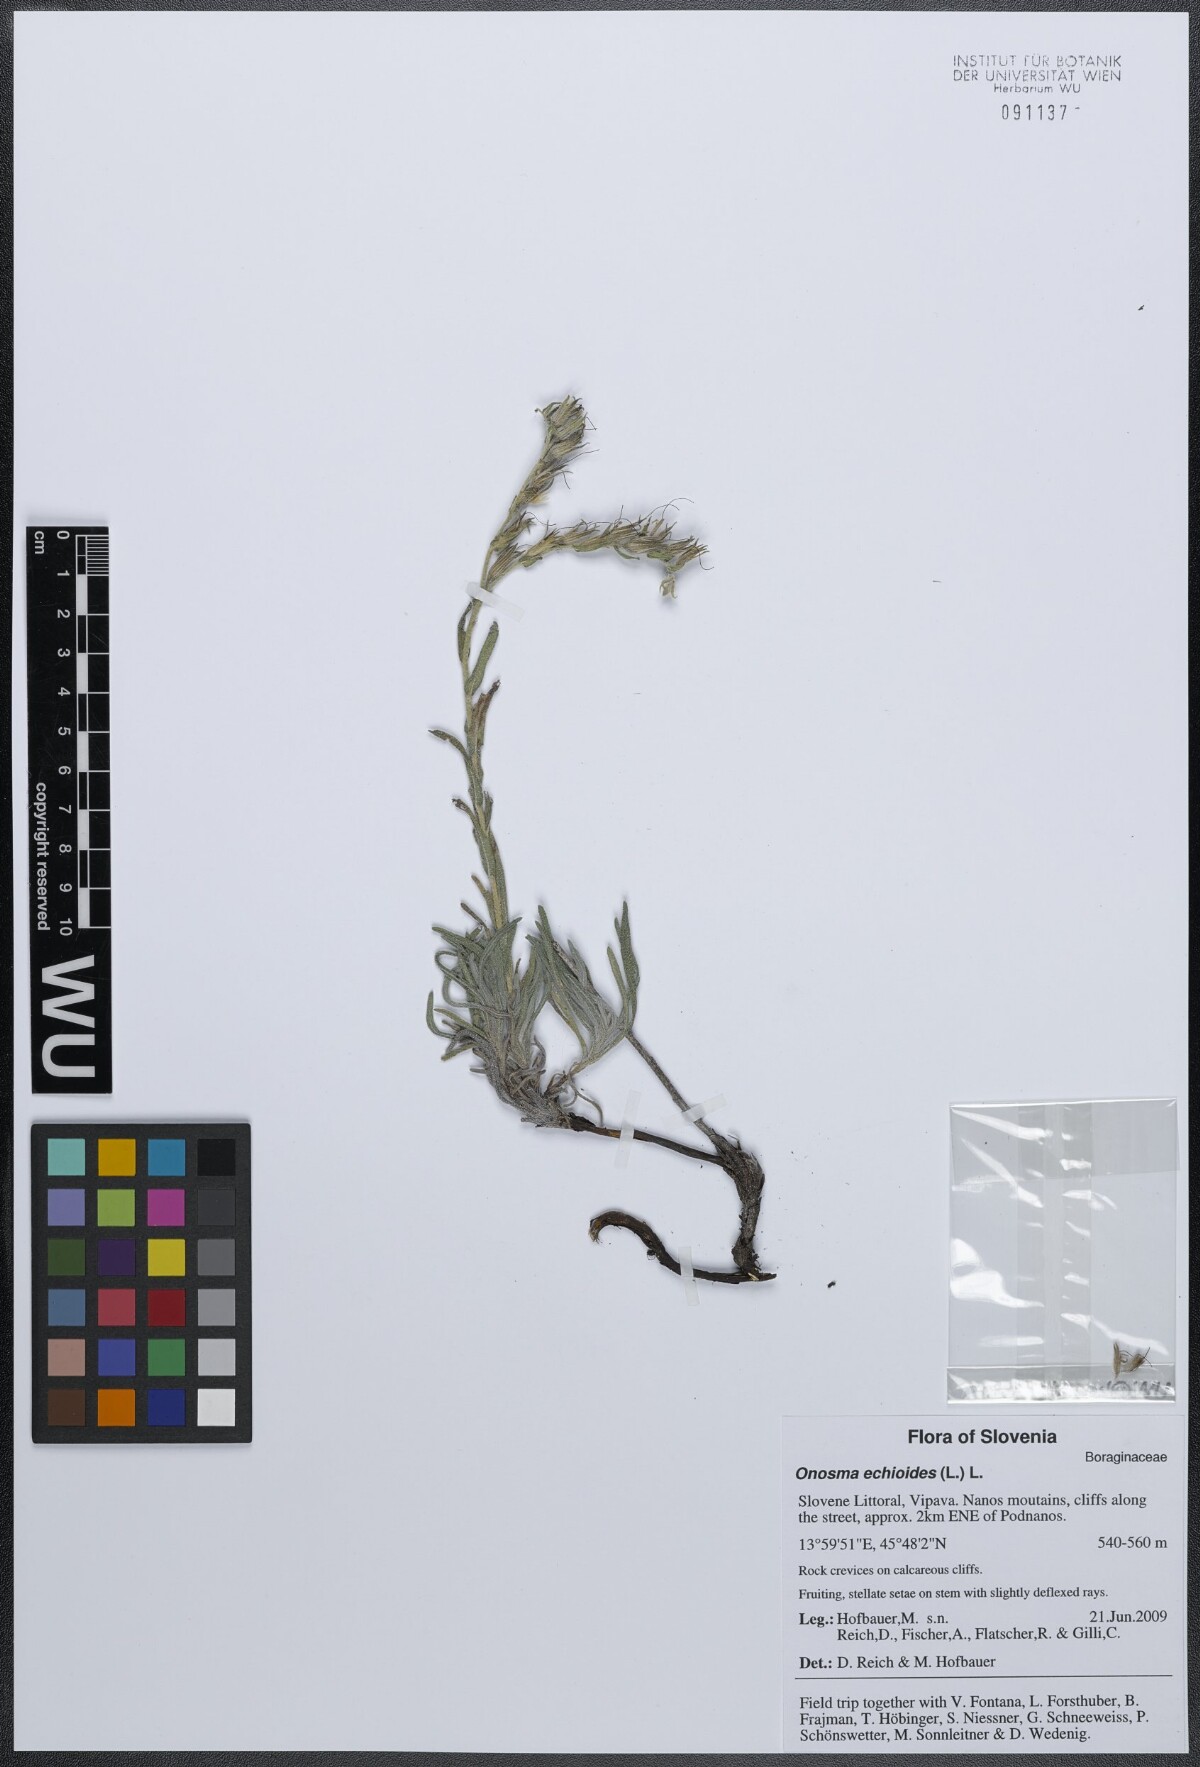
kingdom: Plantae
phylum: Tracheophyta
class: Magnoliopsida
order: Boraginales
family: Boraginaceae
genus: Onosma
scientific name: Onosma echioides
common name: Goldendrop
